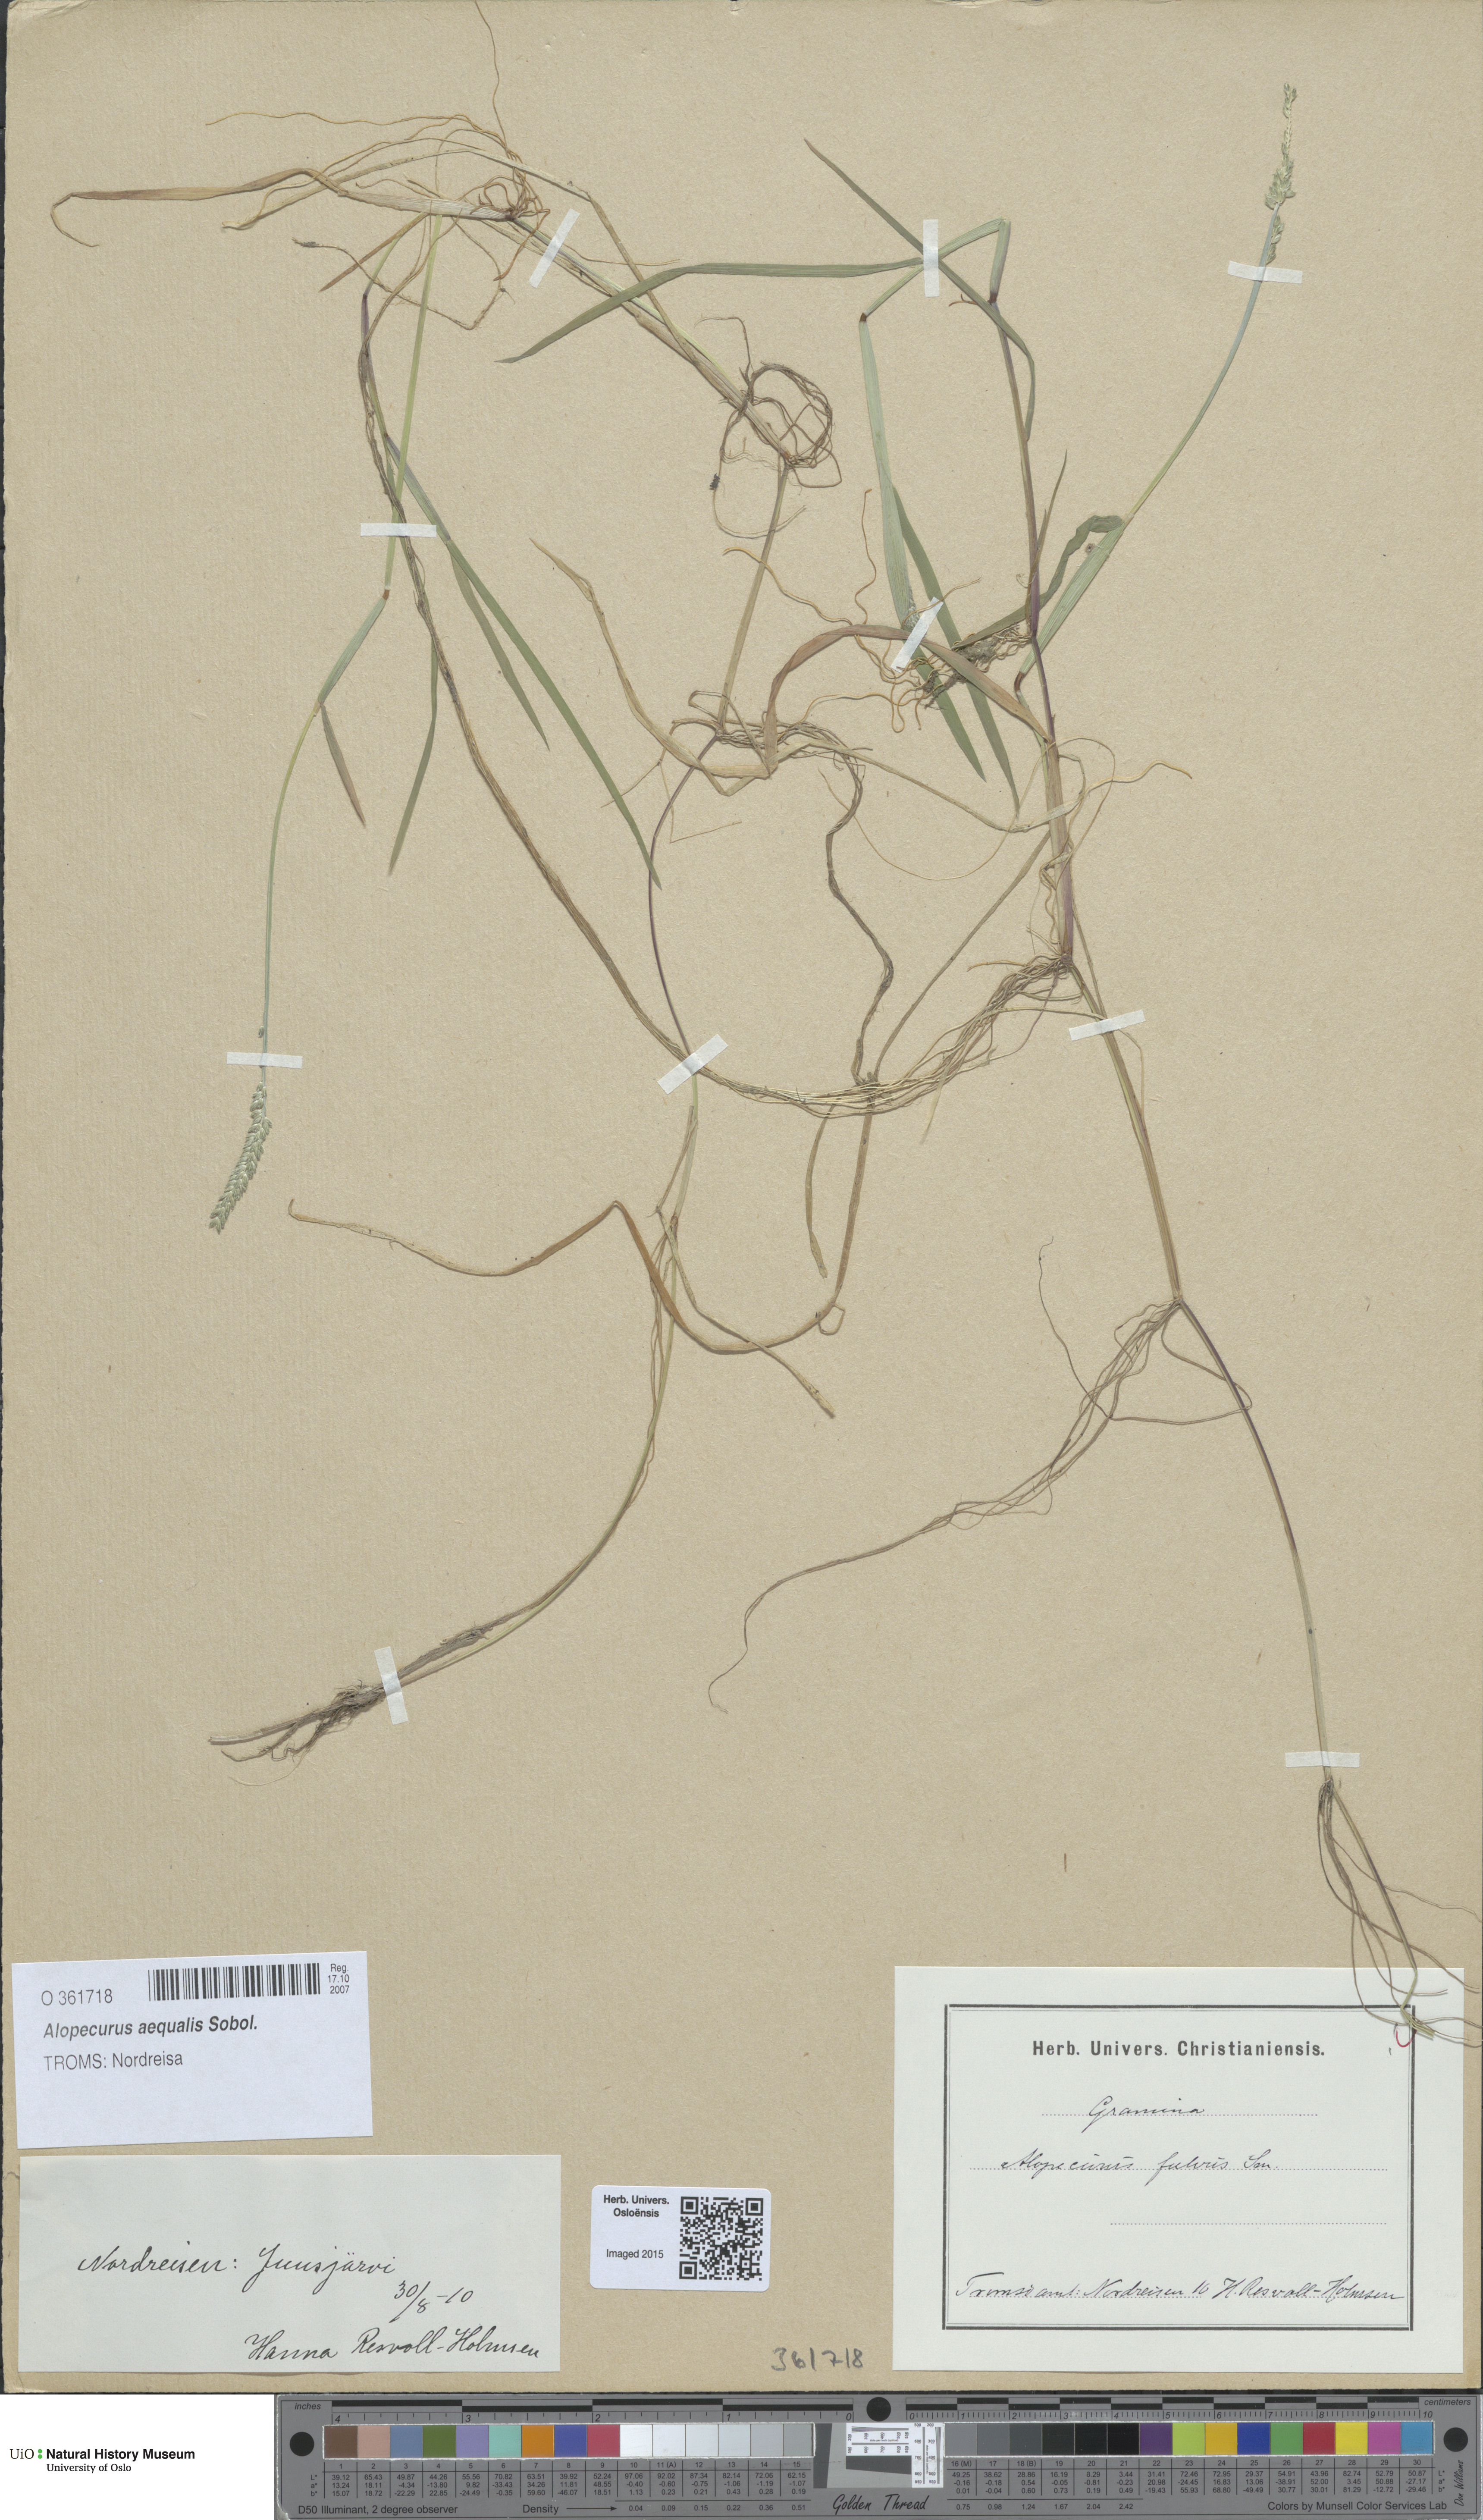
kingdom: Plantae
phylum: Tracheophyta
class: Liliopsida
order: Poales
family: Poaceae
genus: Alopecurus
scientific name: Alopecurus aequalis
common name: Orange foxtail
